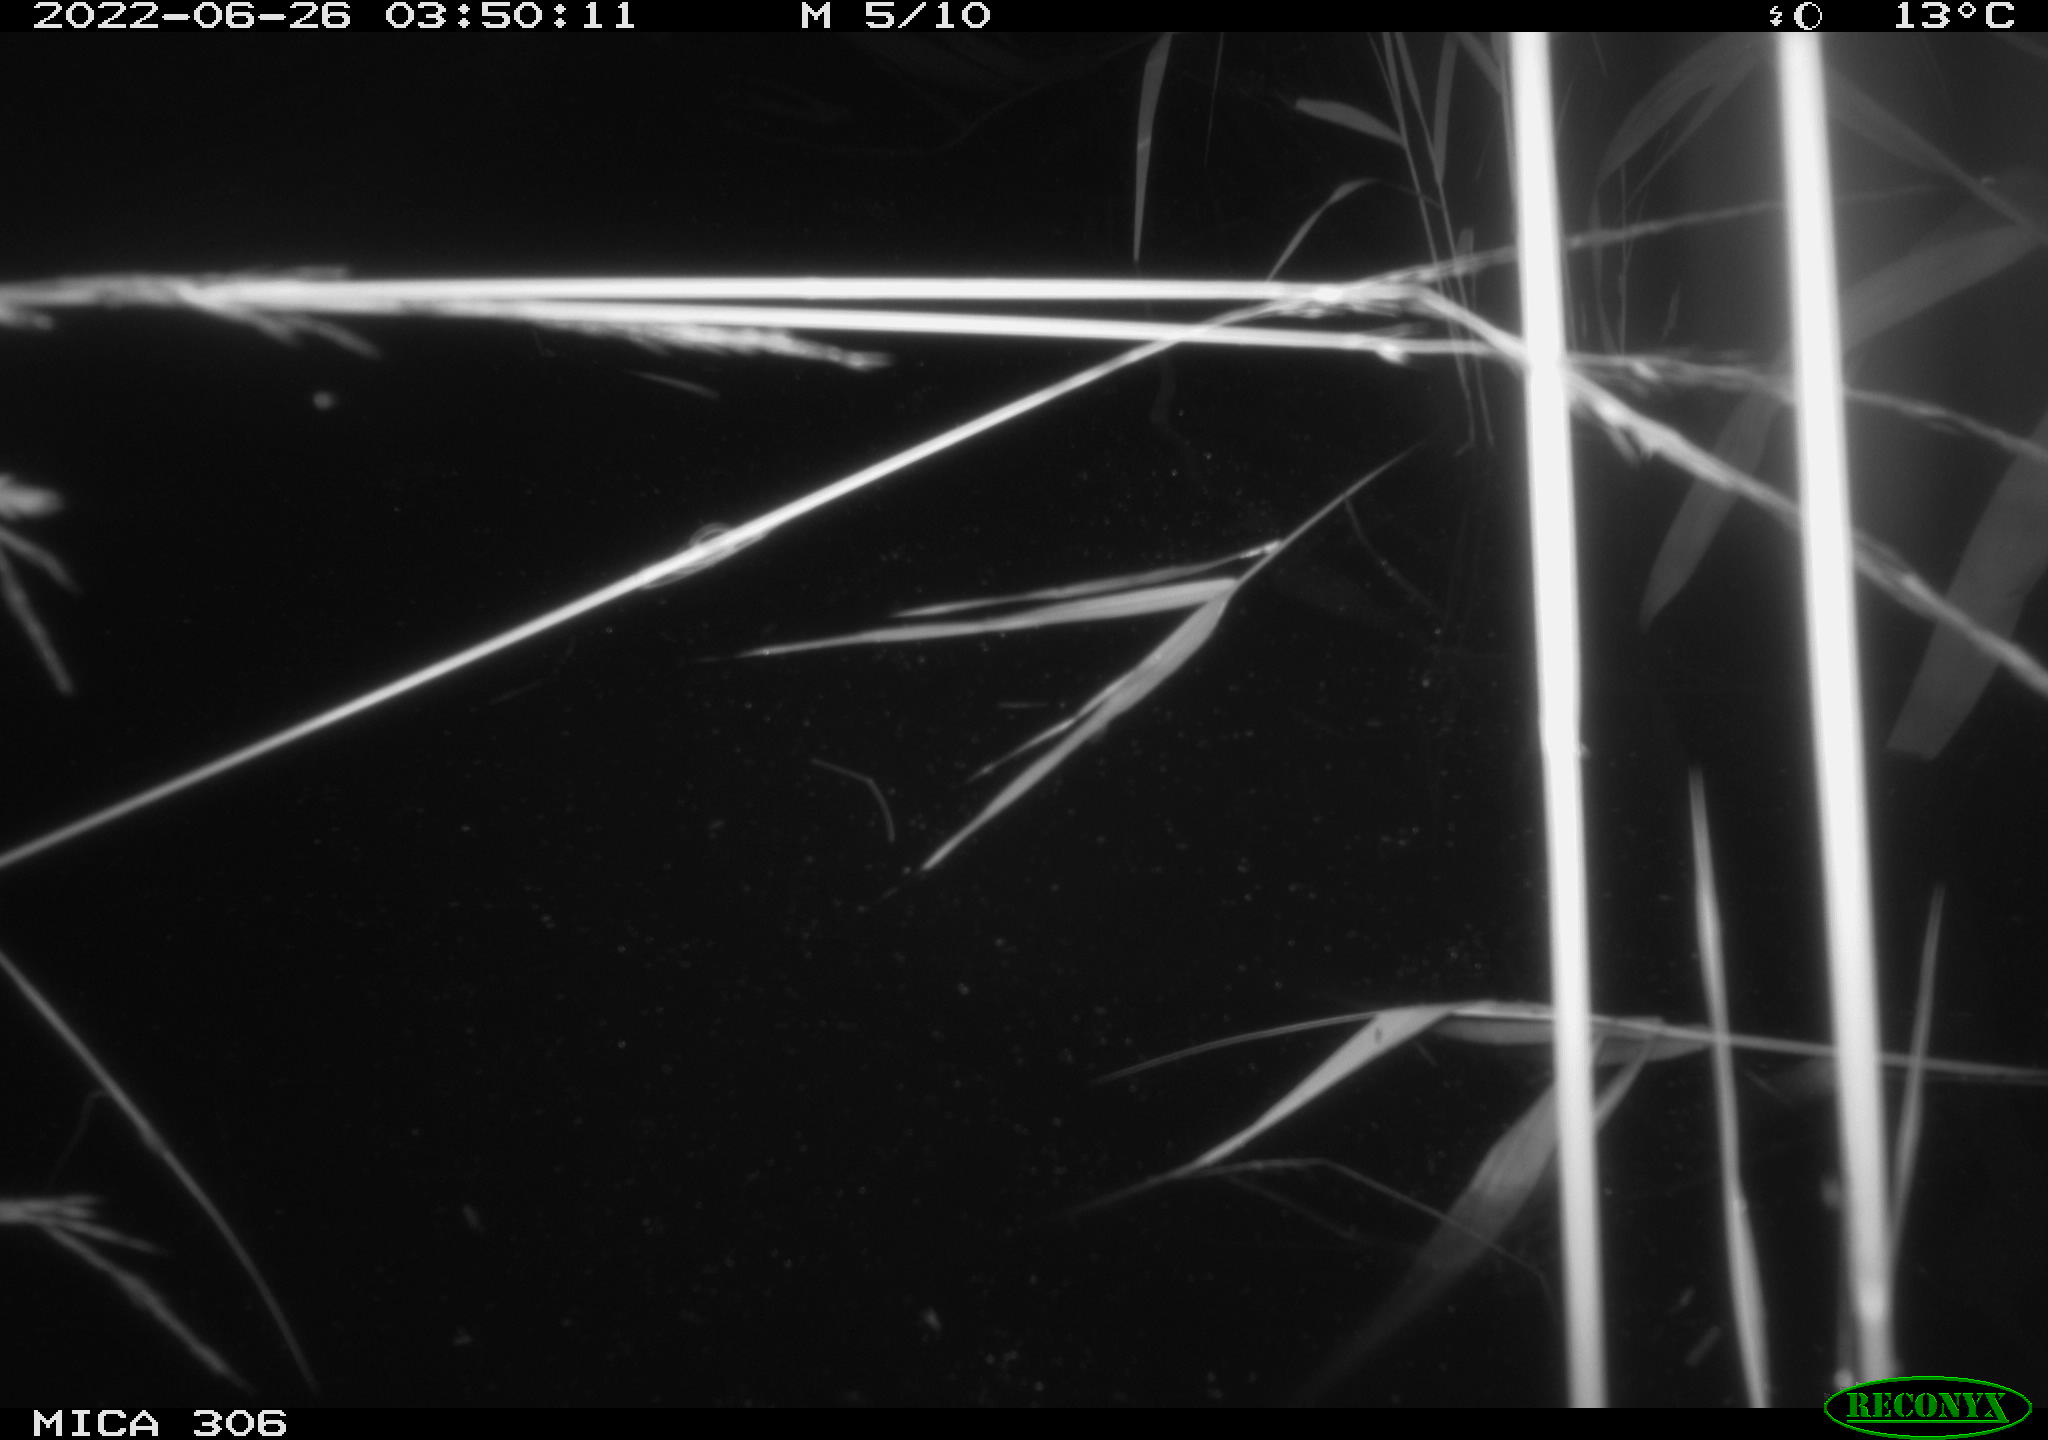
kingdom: Animalia
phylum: Chordata
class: Mammalia
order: Rodentia
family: Cricetidae
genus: Ondatra
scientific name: Ondatra zibethicus
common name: Muskrat
